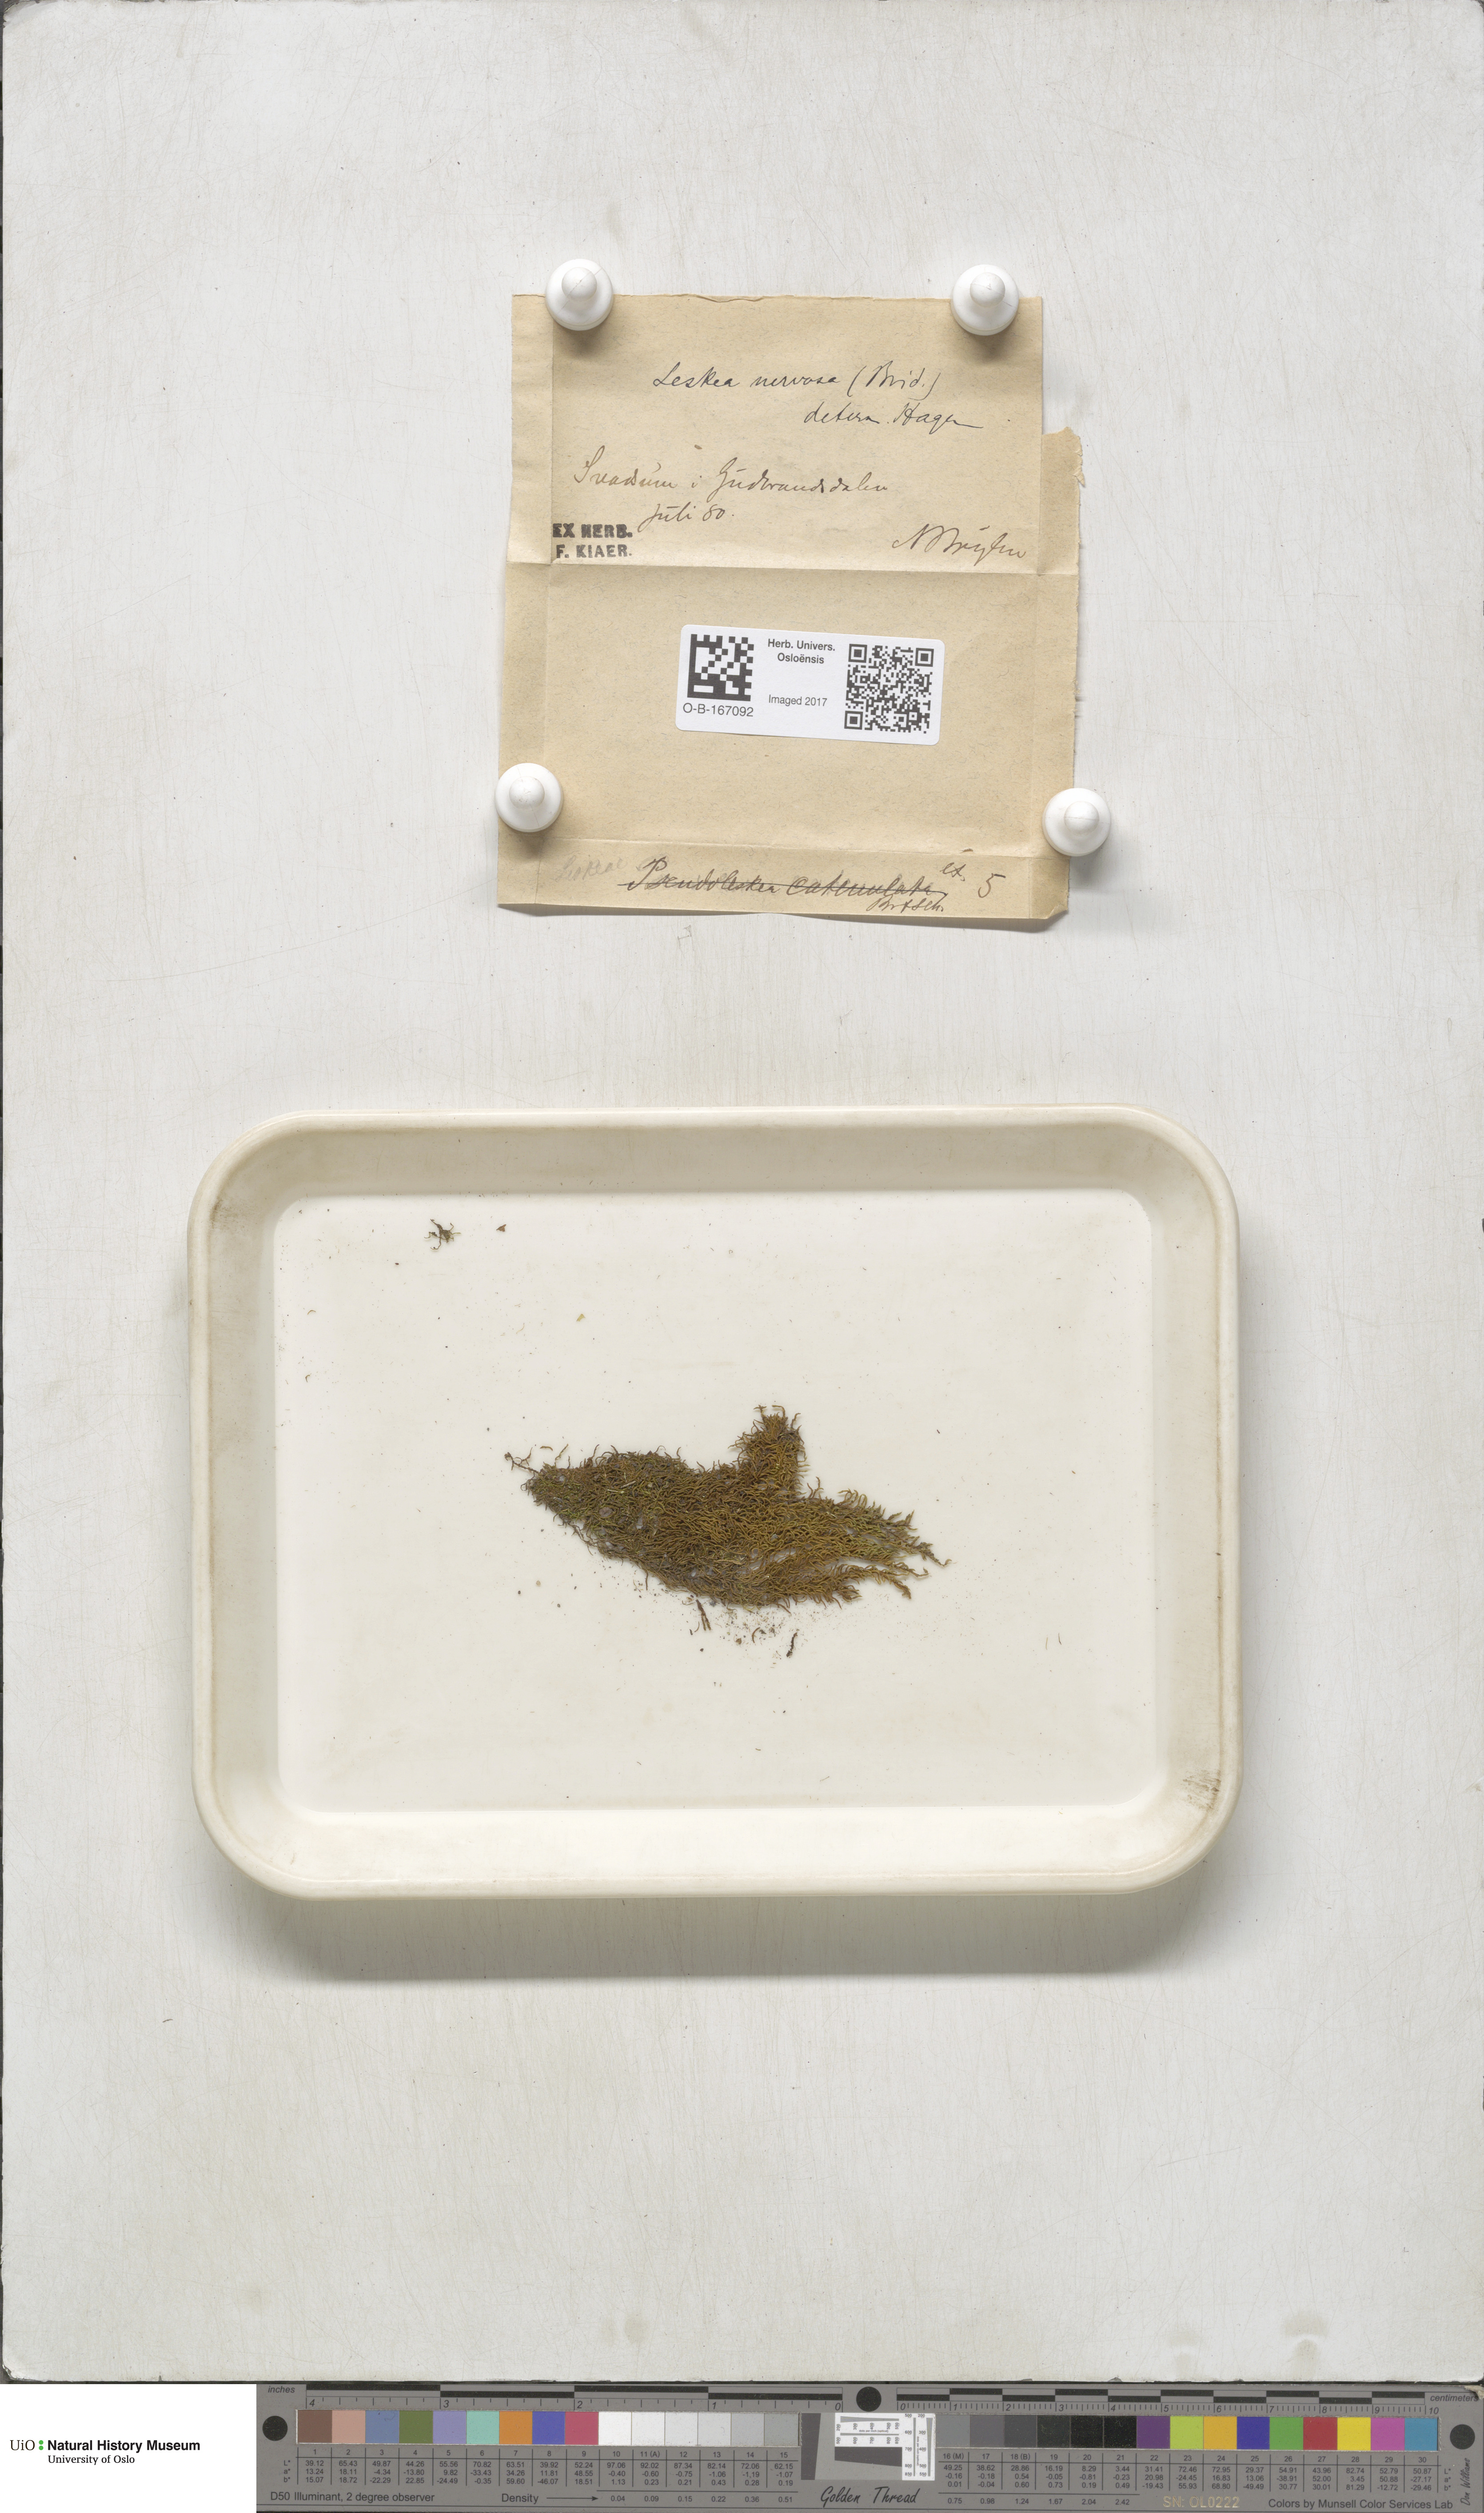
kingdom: Plantae
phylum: Bryophyta
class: Bryopsida
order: Hypnales
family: Pseudoleskeellaceae
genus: Pseudoleskeella
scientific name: Pseudoleskeella nervosa
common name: Nerved leske's moss
